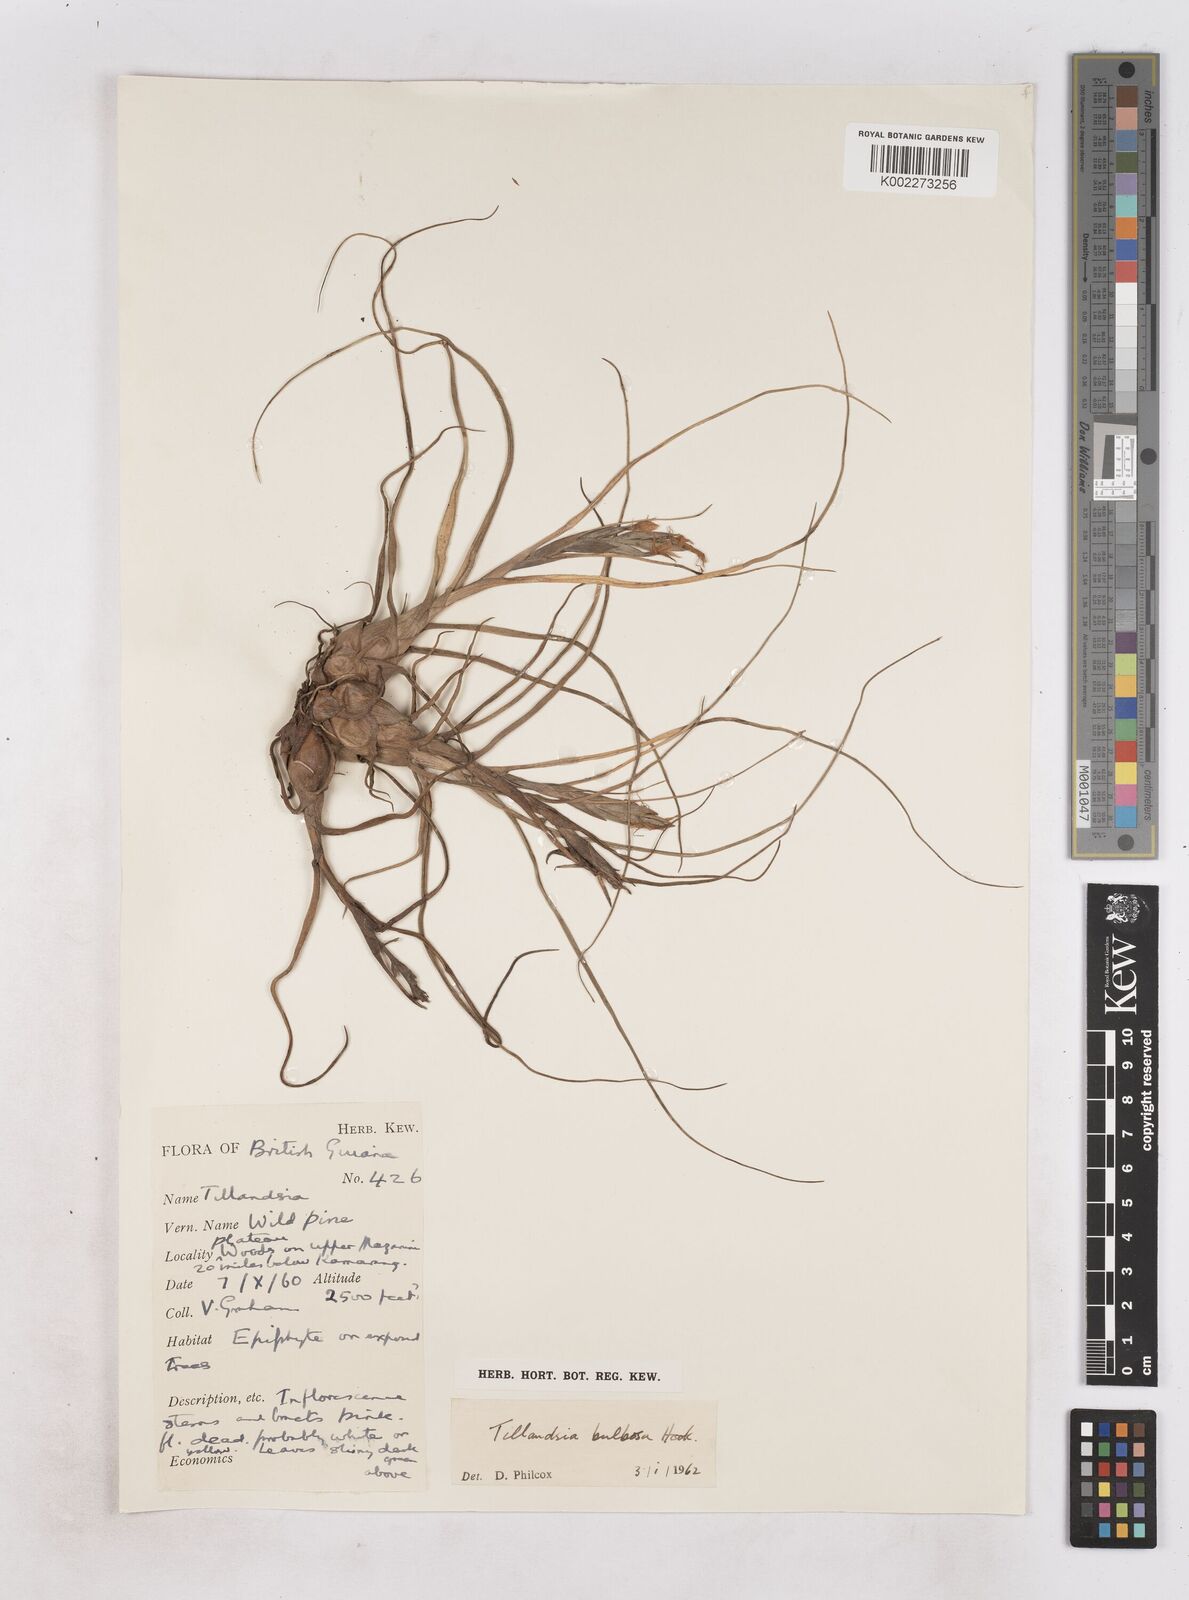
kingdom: Plantae
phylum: Tracheophyta
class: Liliopsida
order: Poales
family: Bromeliaceae
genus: Tillandsia
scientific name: Tillandsia bulbosa
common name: Bulbous airplant
